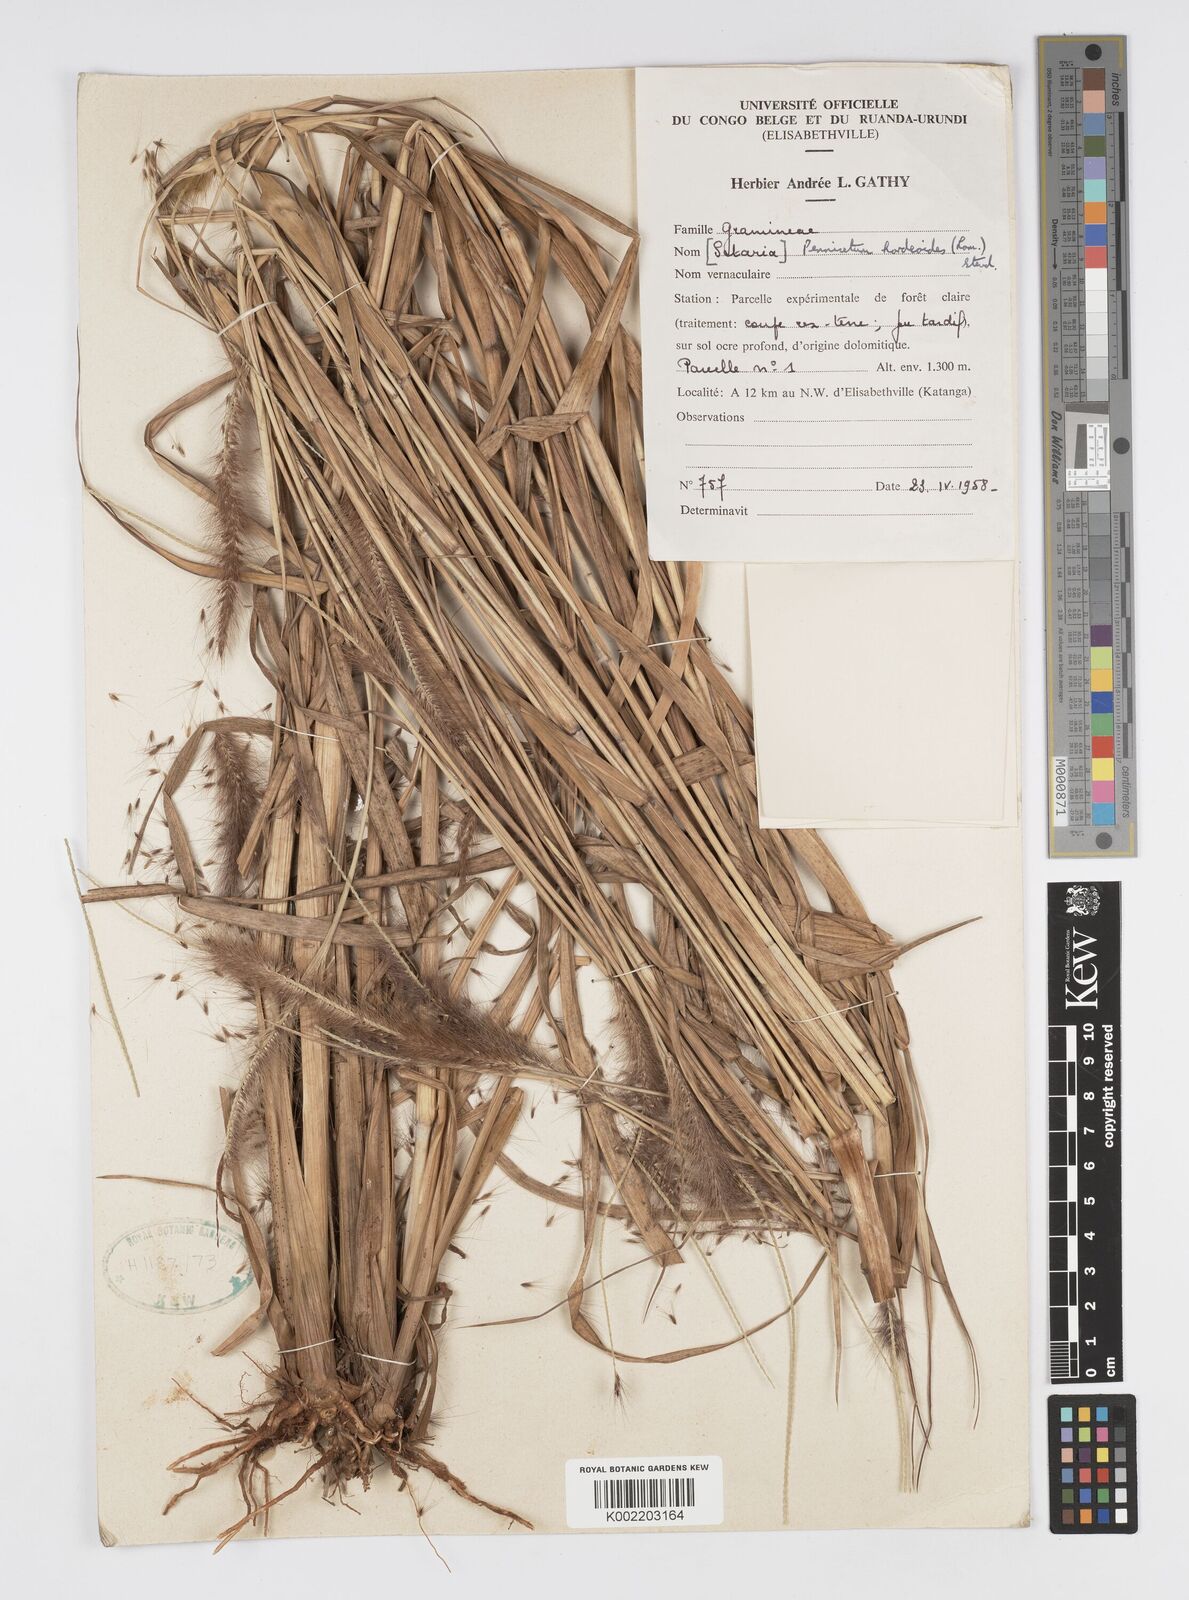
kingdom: Plantae
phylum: Tracheophyta
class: Liliopsida
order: Poales
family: Poaceae
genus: Cenchrus
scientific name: Cenchrus setosus
